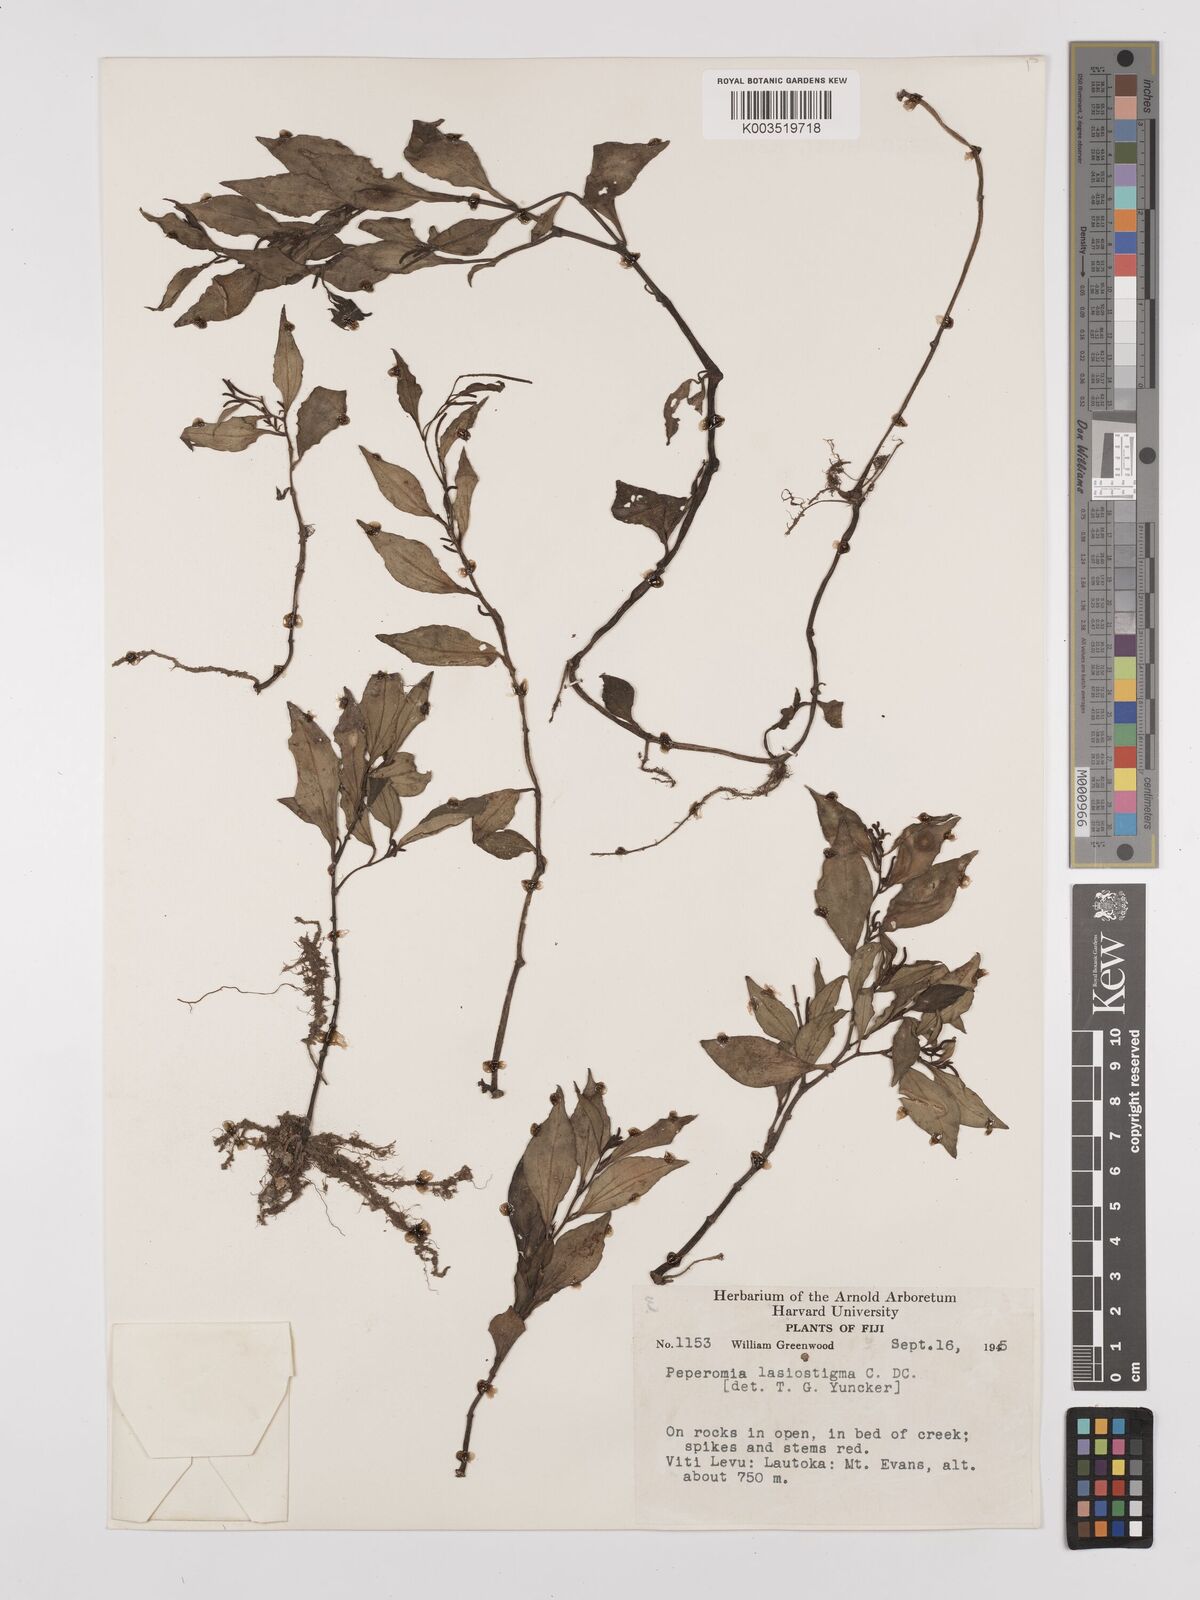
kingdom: Plantae
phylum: Tracheophyta
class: Magnoliopsida
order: Piperales
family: Piperaceae
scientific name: Piperaceae
